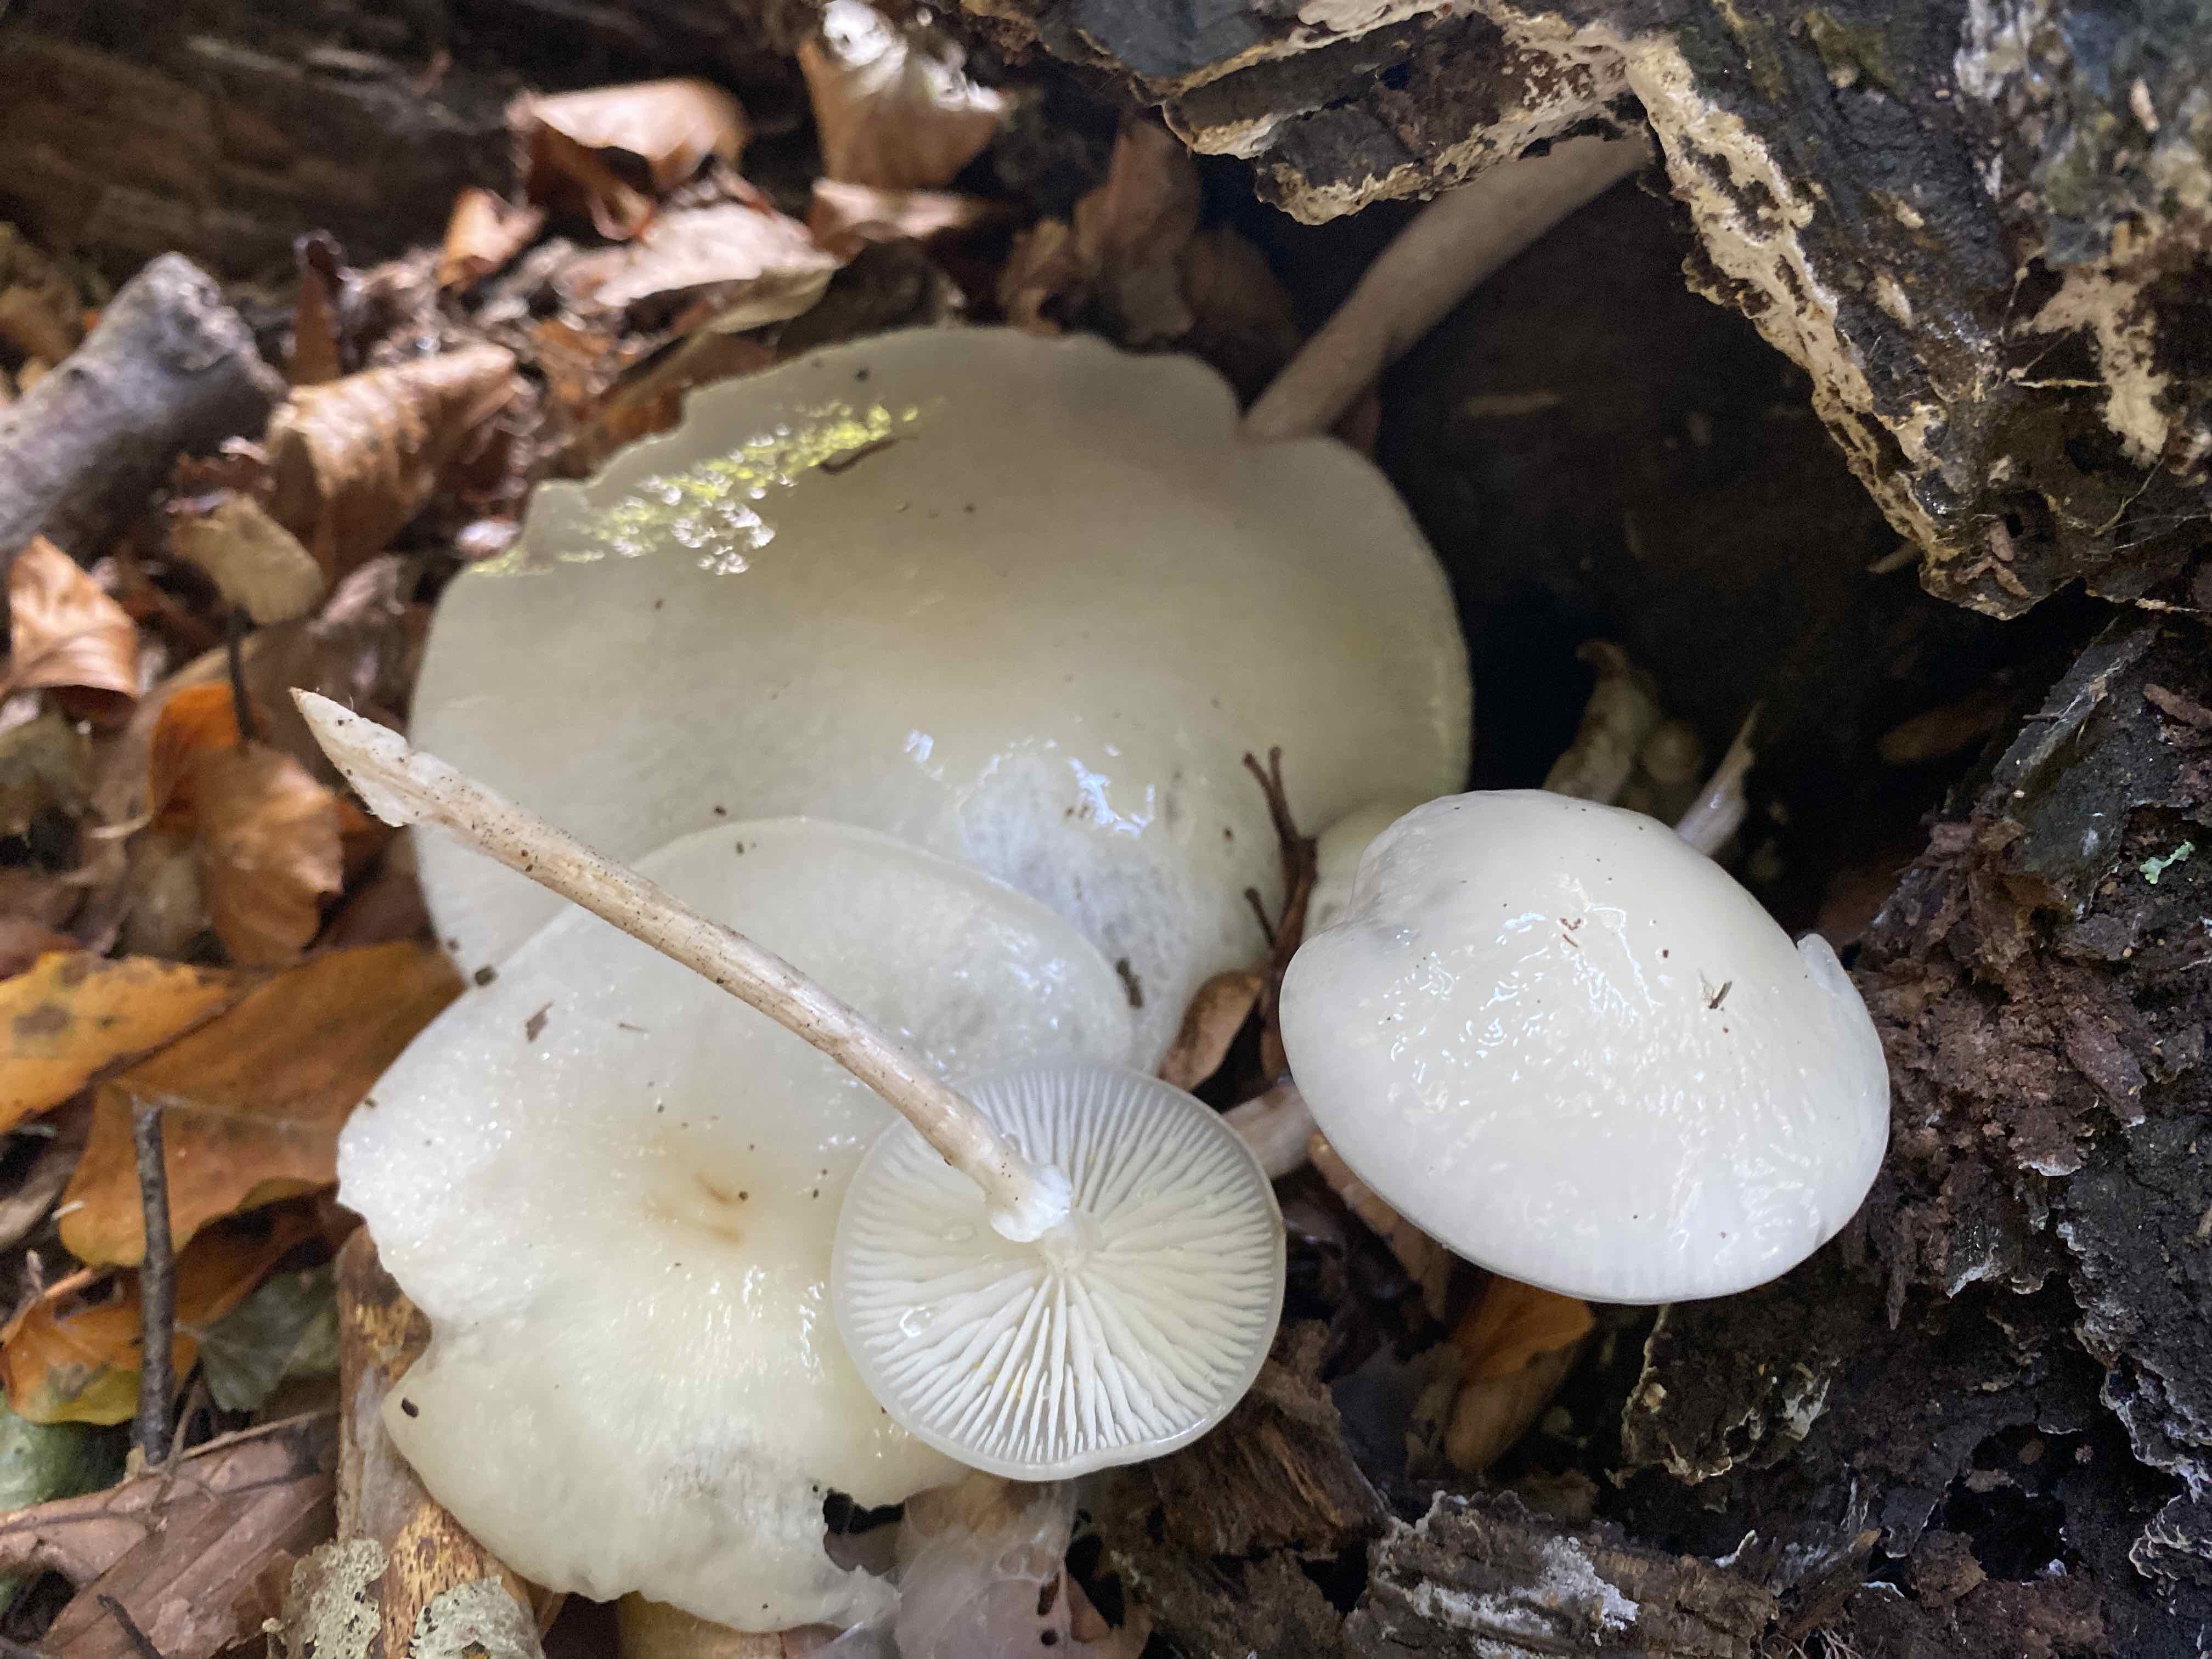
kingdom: Fungi
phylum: Basidiomycota
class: Agaricomycetes
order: Agaricales
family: Physalacriaceae
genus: Mucidula
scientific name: Mucidula mucida
